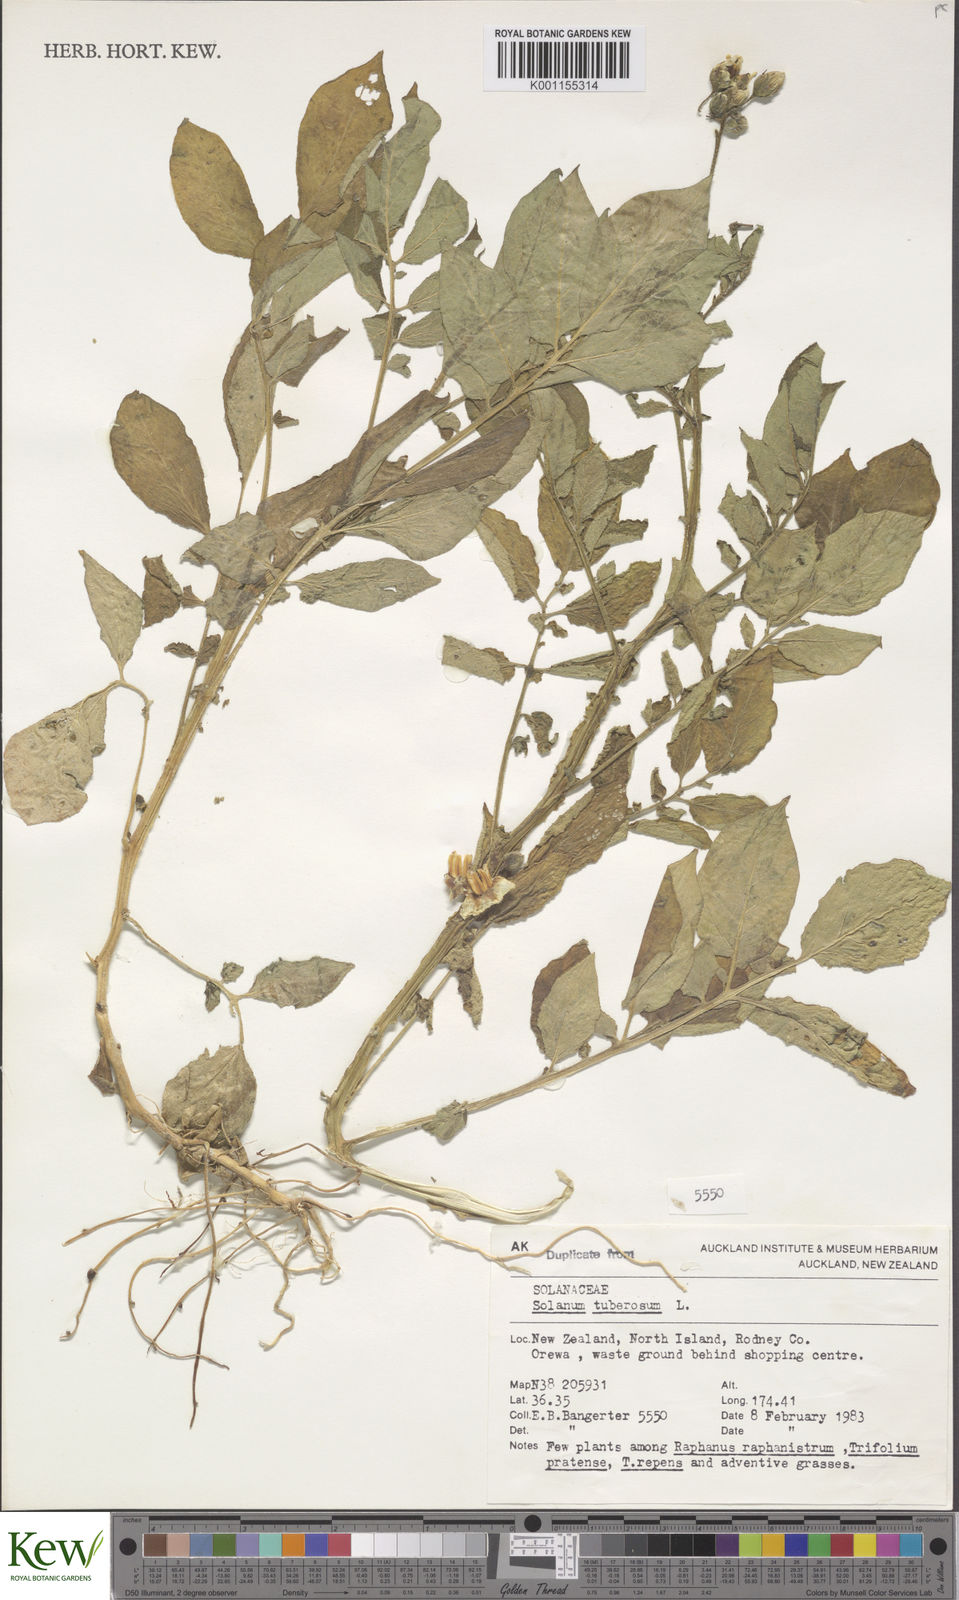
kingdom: Plantae
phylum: Tracheophyta
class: Magnoliopsida
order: Solanales
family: Solanaceae
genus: Solanum
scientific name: Solanum tuberosum
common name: Potato
